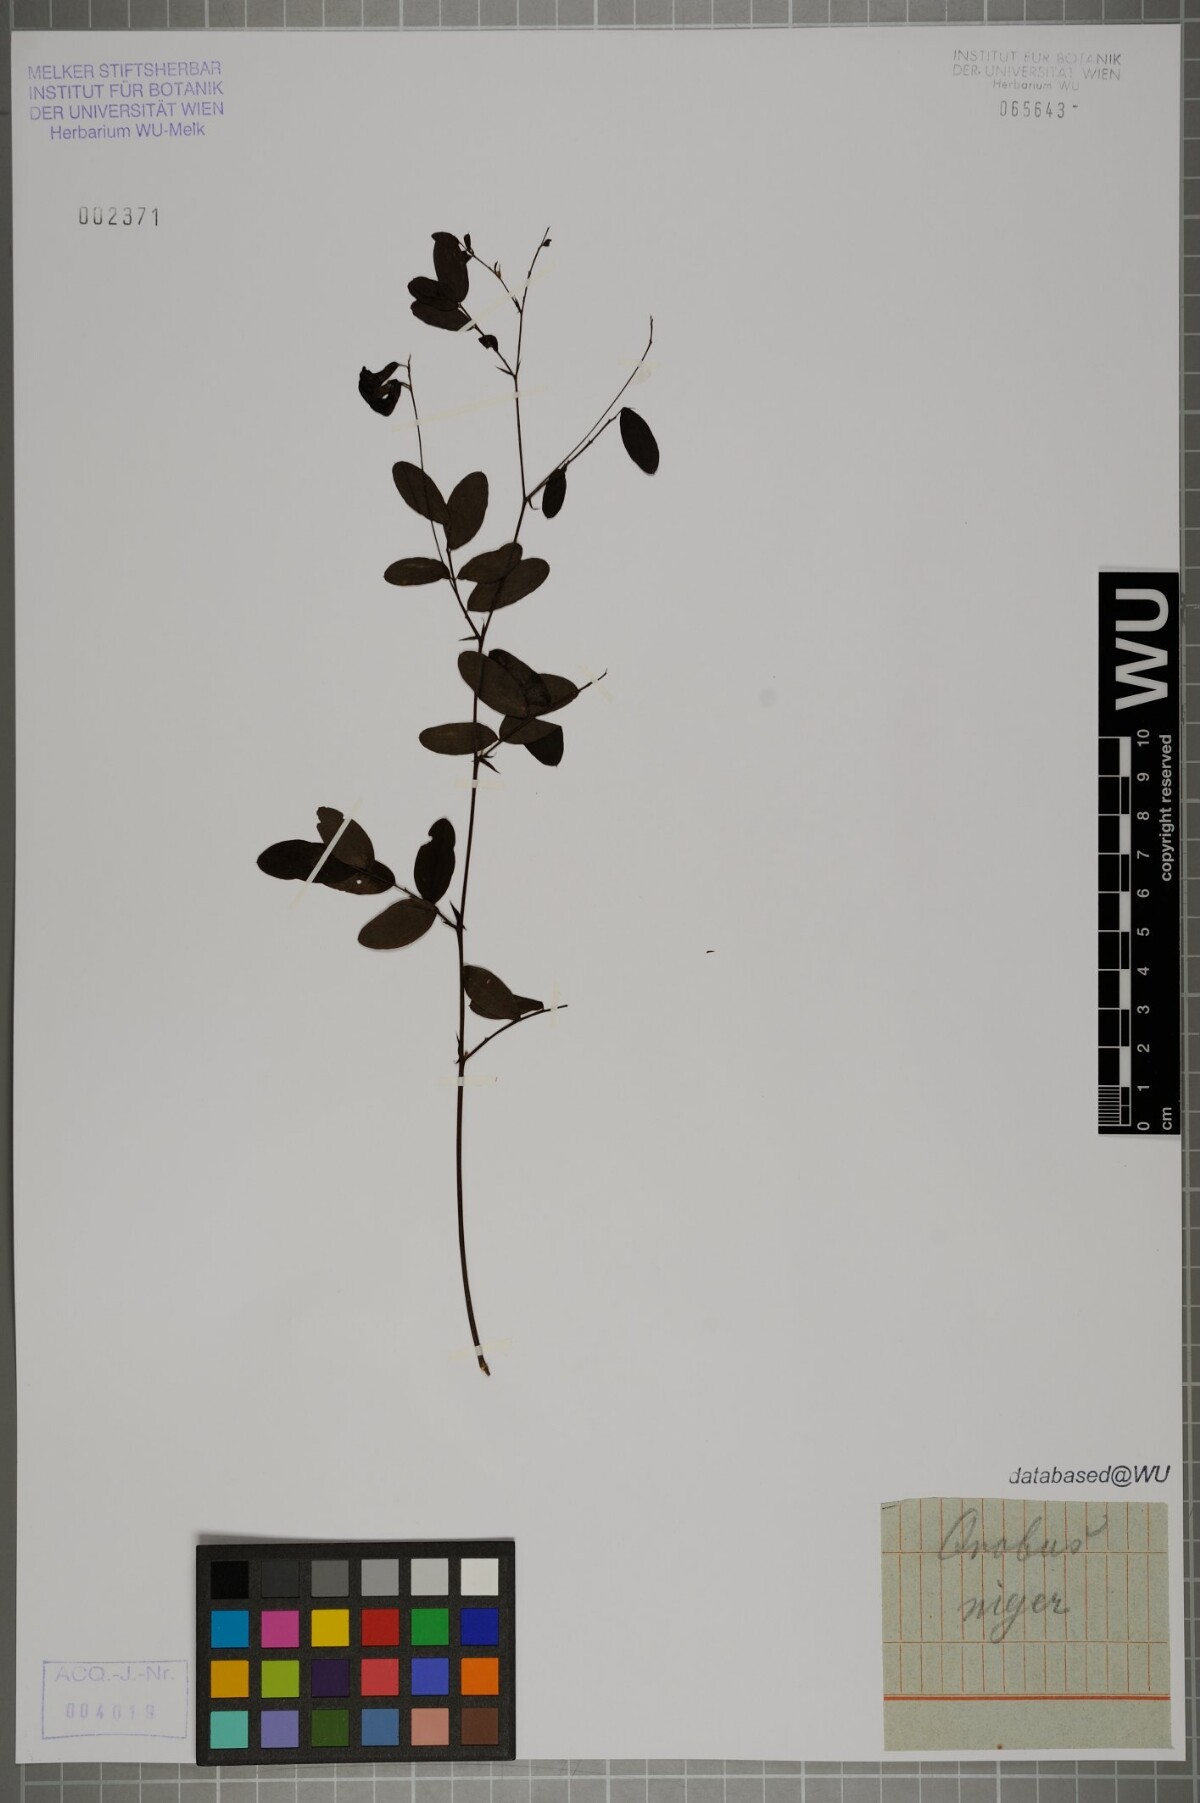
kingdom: Plantae
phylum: Tracheophyta
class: Magnoliopsida
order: Fabales
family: Fabaceae
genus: Lathyrus
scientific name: Lathyrus niger
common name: Black pea
